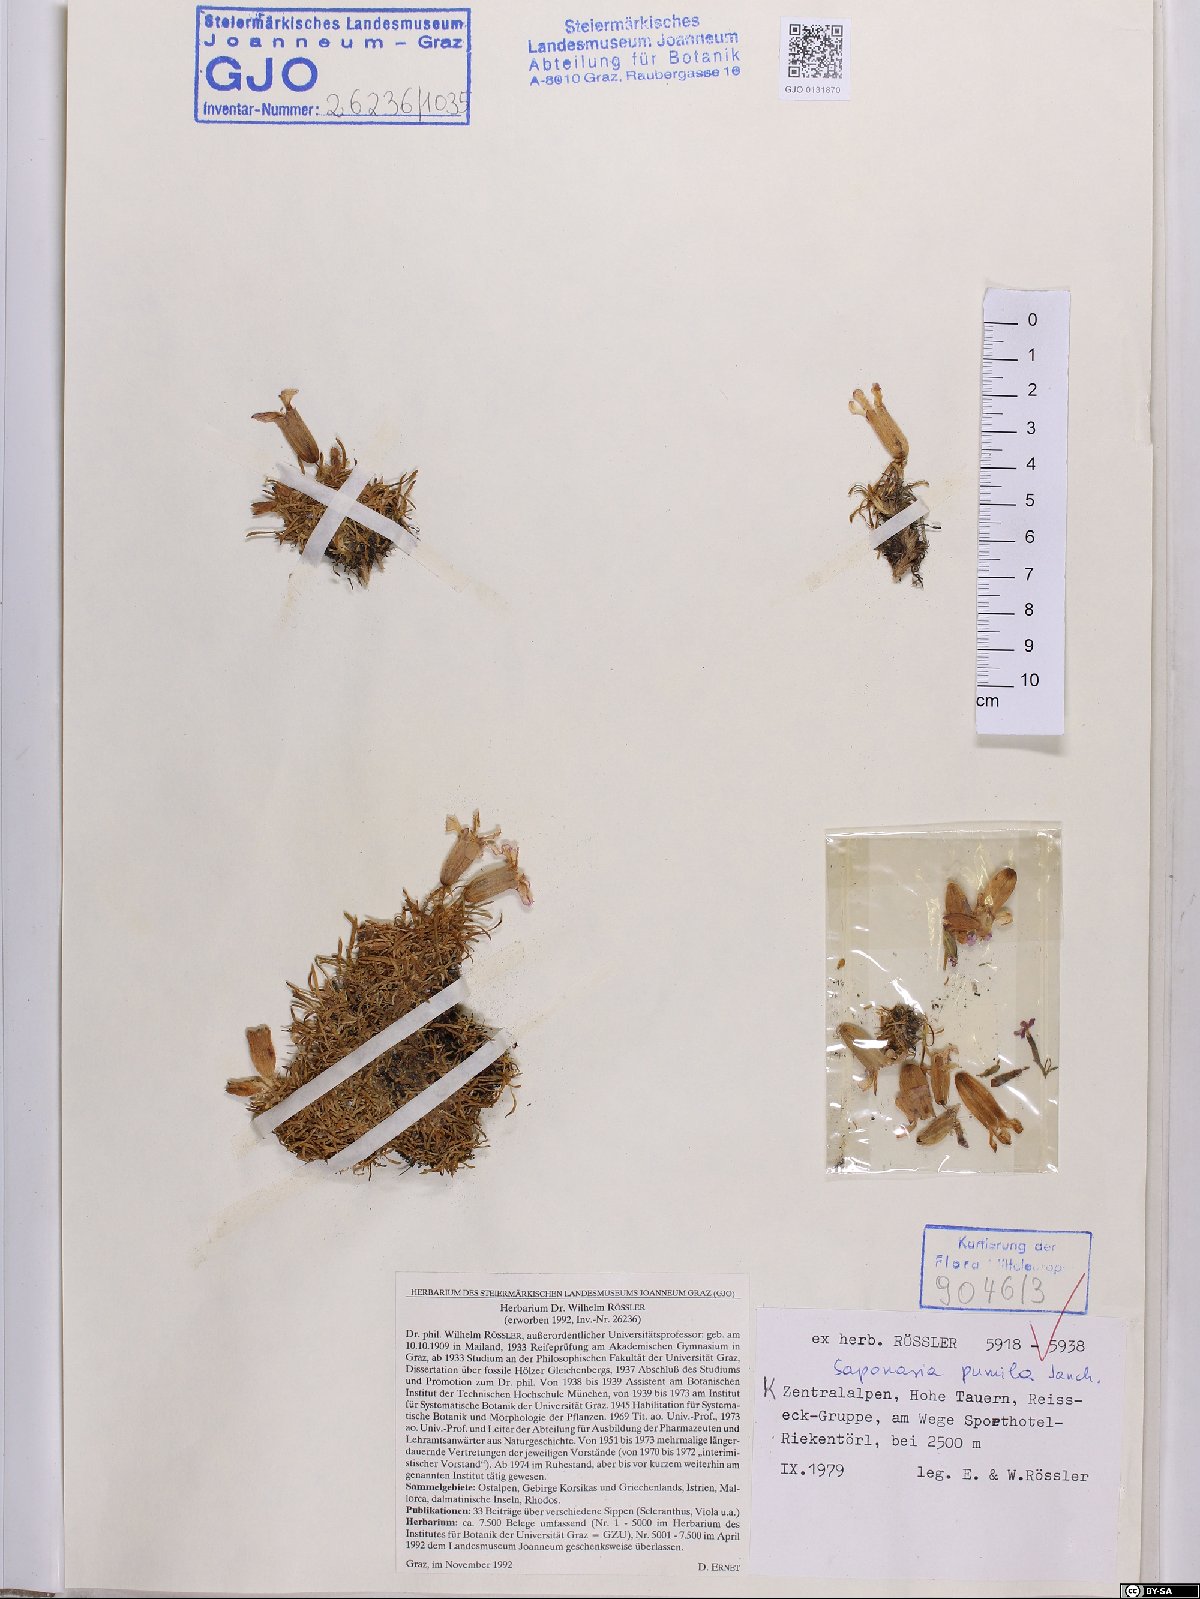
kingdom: Plantae
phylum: Tracheophyta
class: Magnoliopsida
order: Caryophyllales
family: Caryophyllaceae
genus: Saponaria
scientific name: Saponaria pumila
